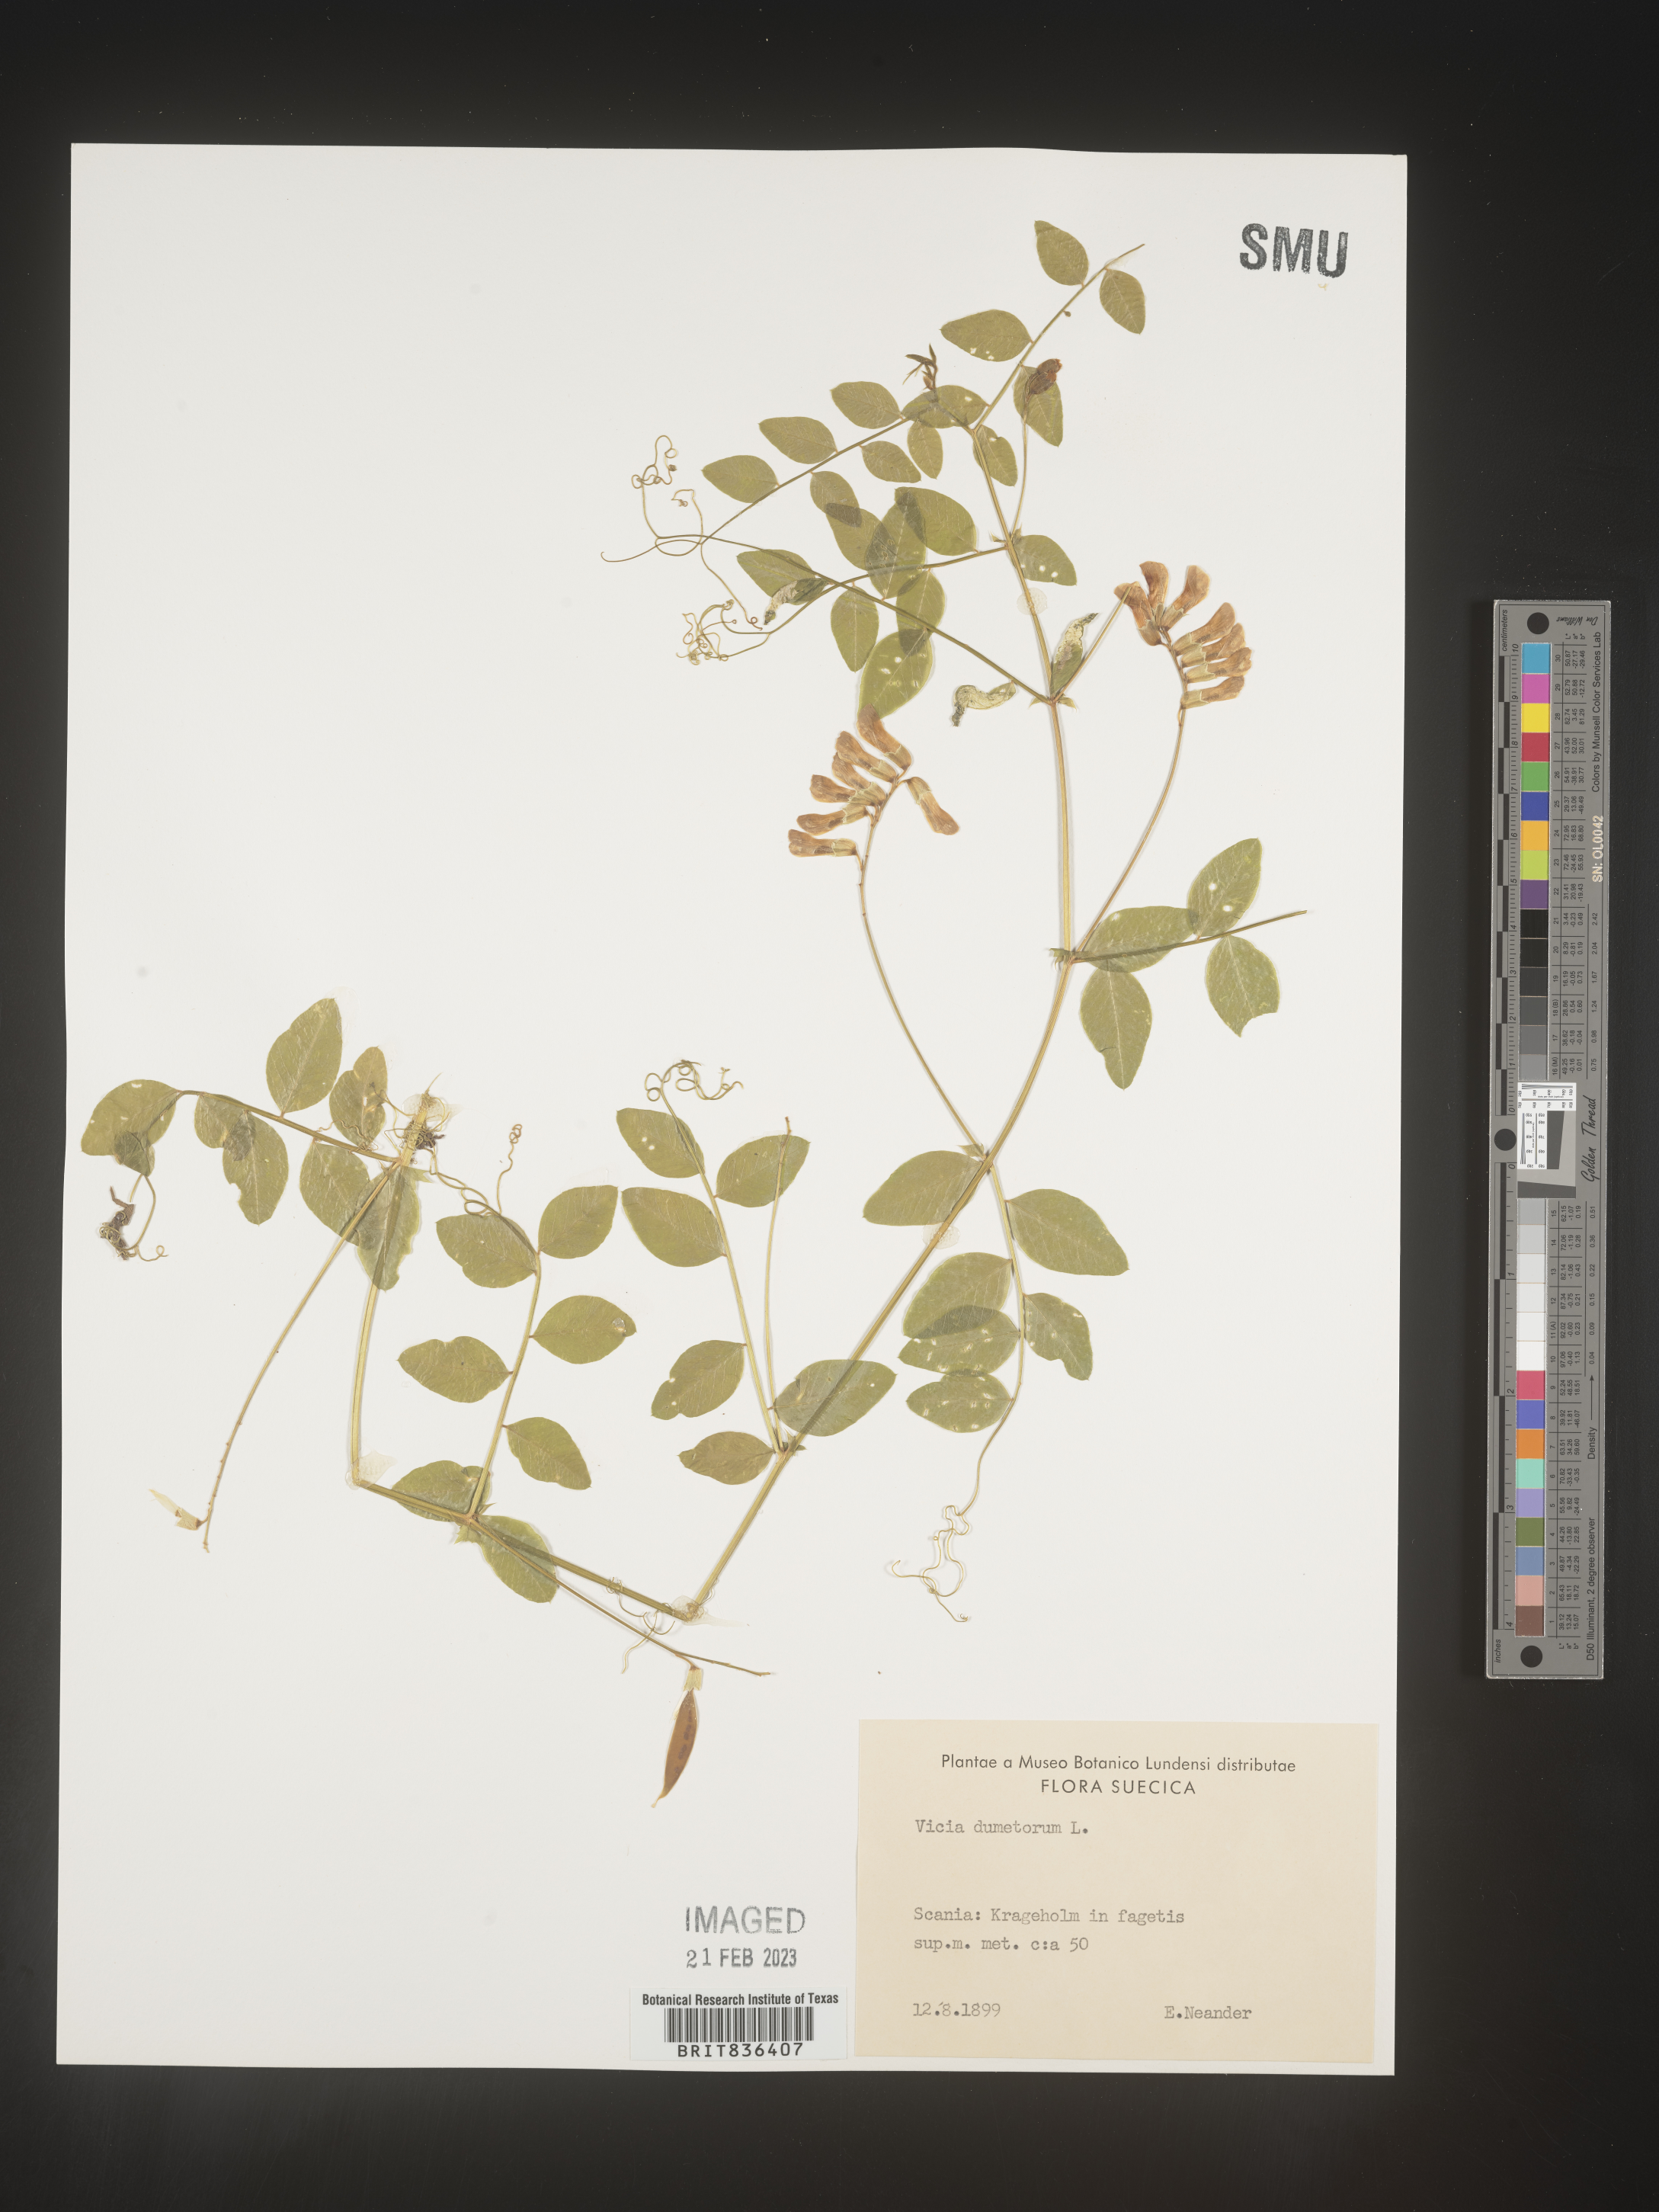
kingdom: Plantae
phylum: Tracheophyta
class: Magnoliopsida
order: Fabales
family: Fabaceae
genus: Vicia
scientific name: Vicia
